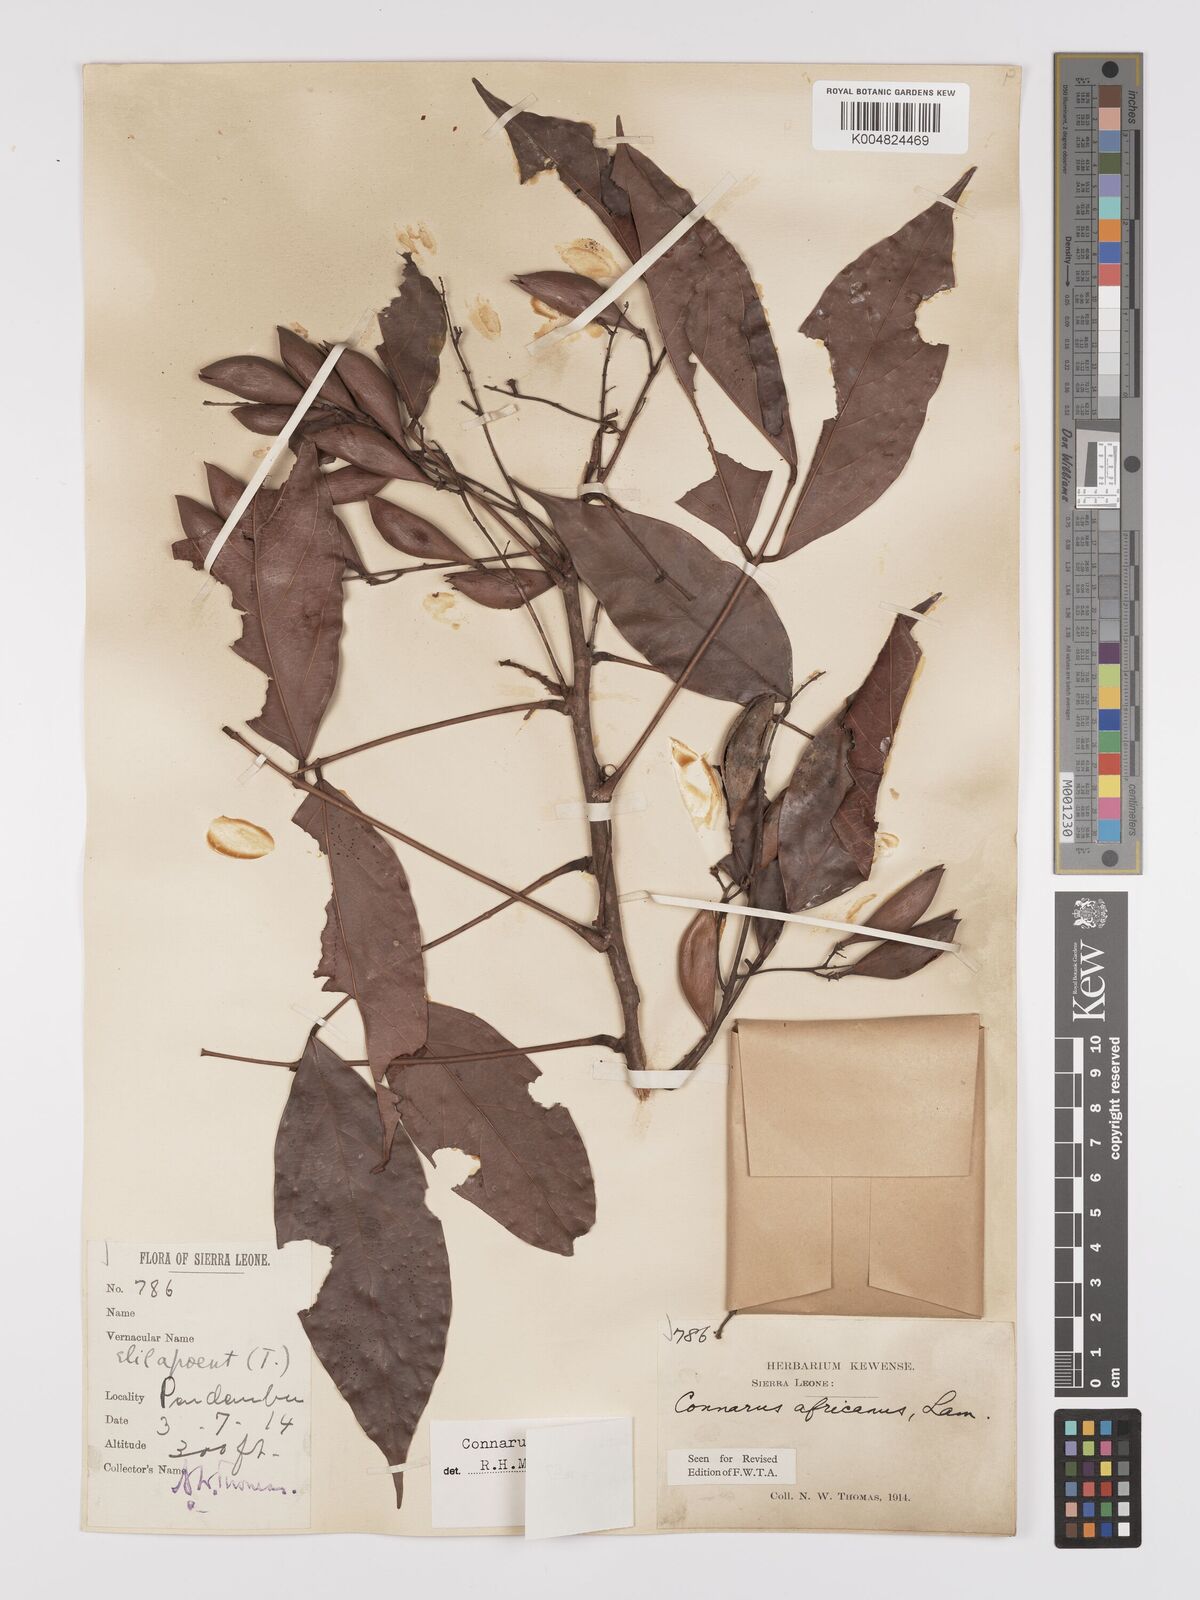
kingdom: Plantae
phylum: Tracheophyta
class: Magnoliopsida
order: Oxalidales
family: Connaraceae
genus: Connarus
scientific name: Connarus africanus
